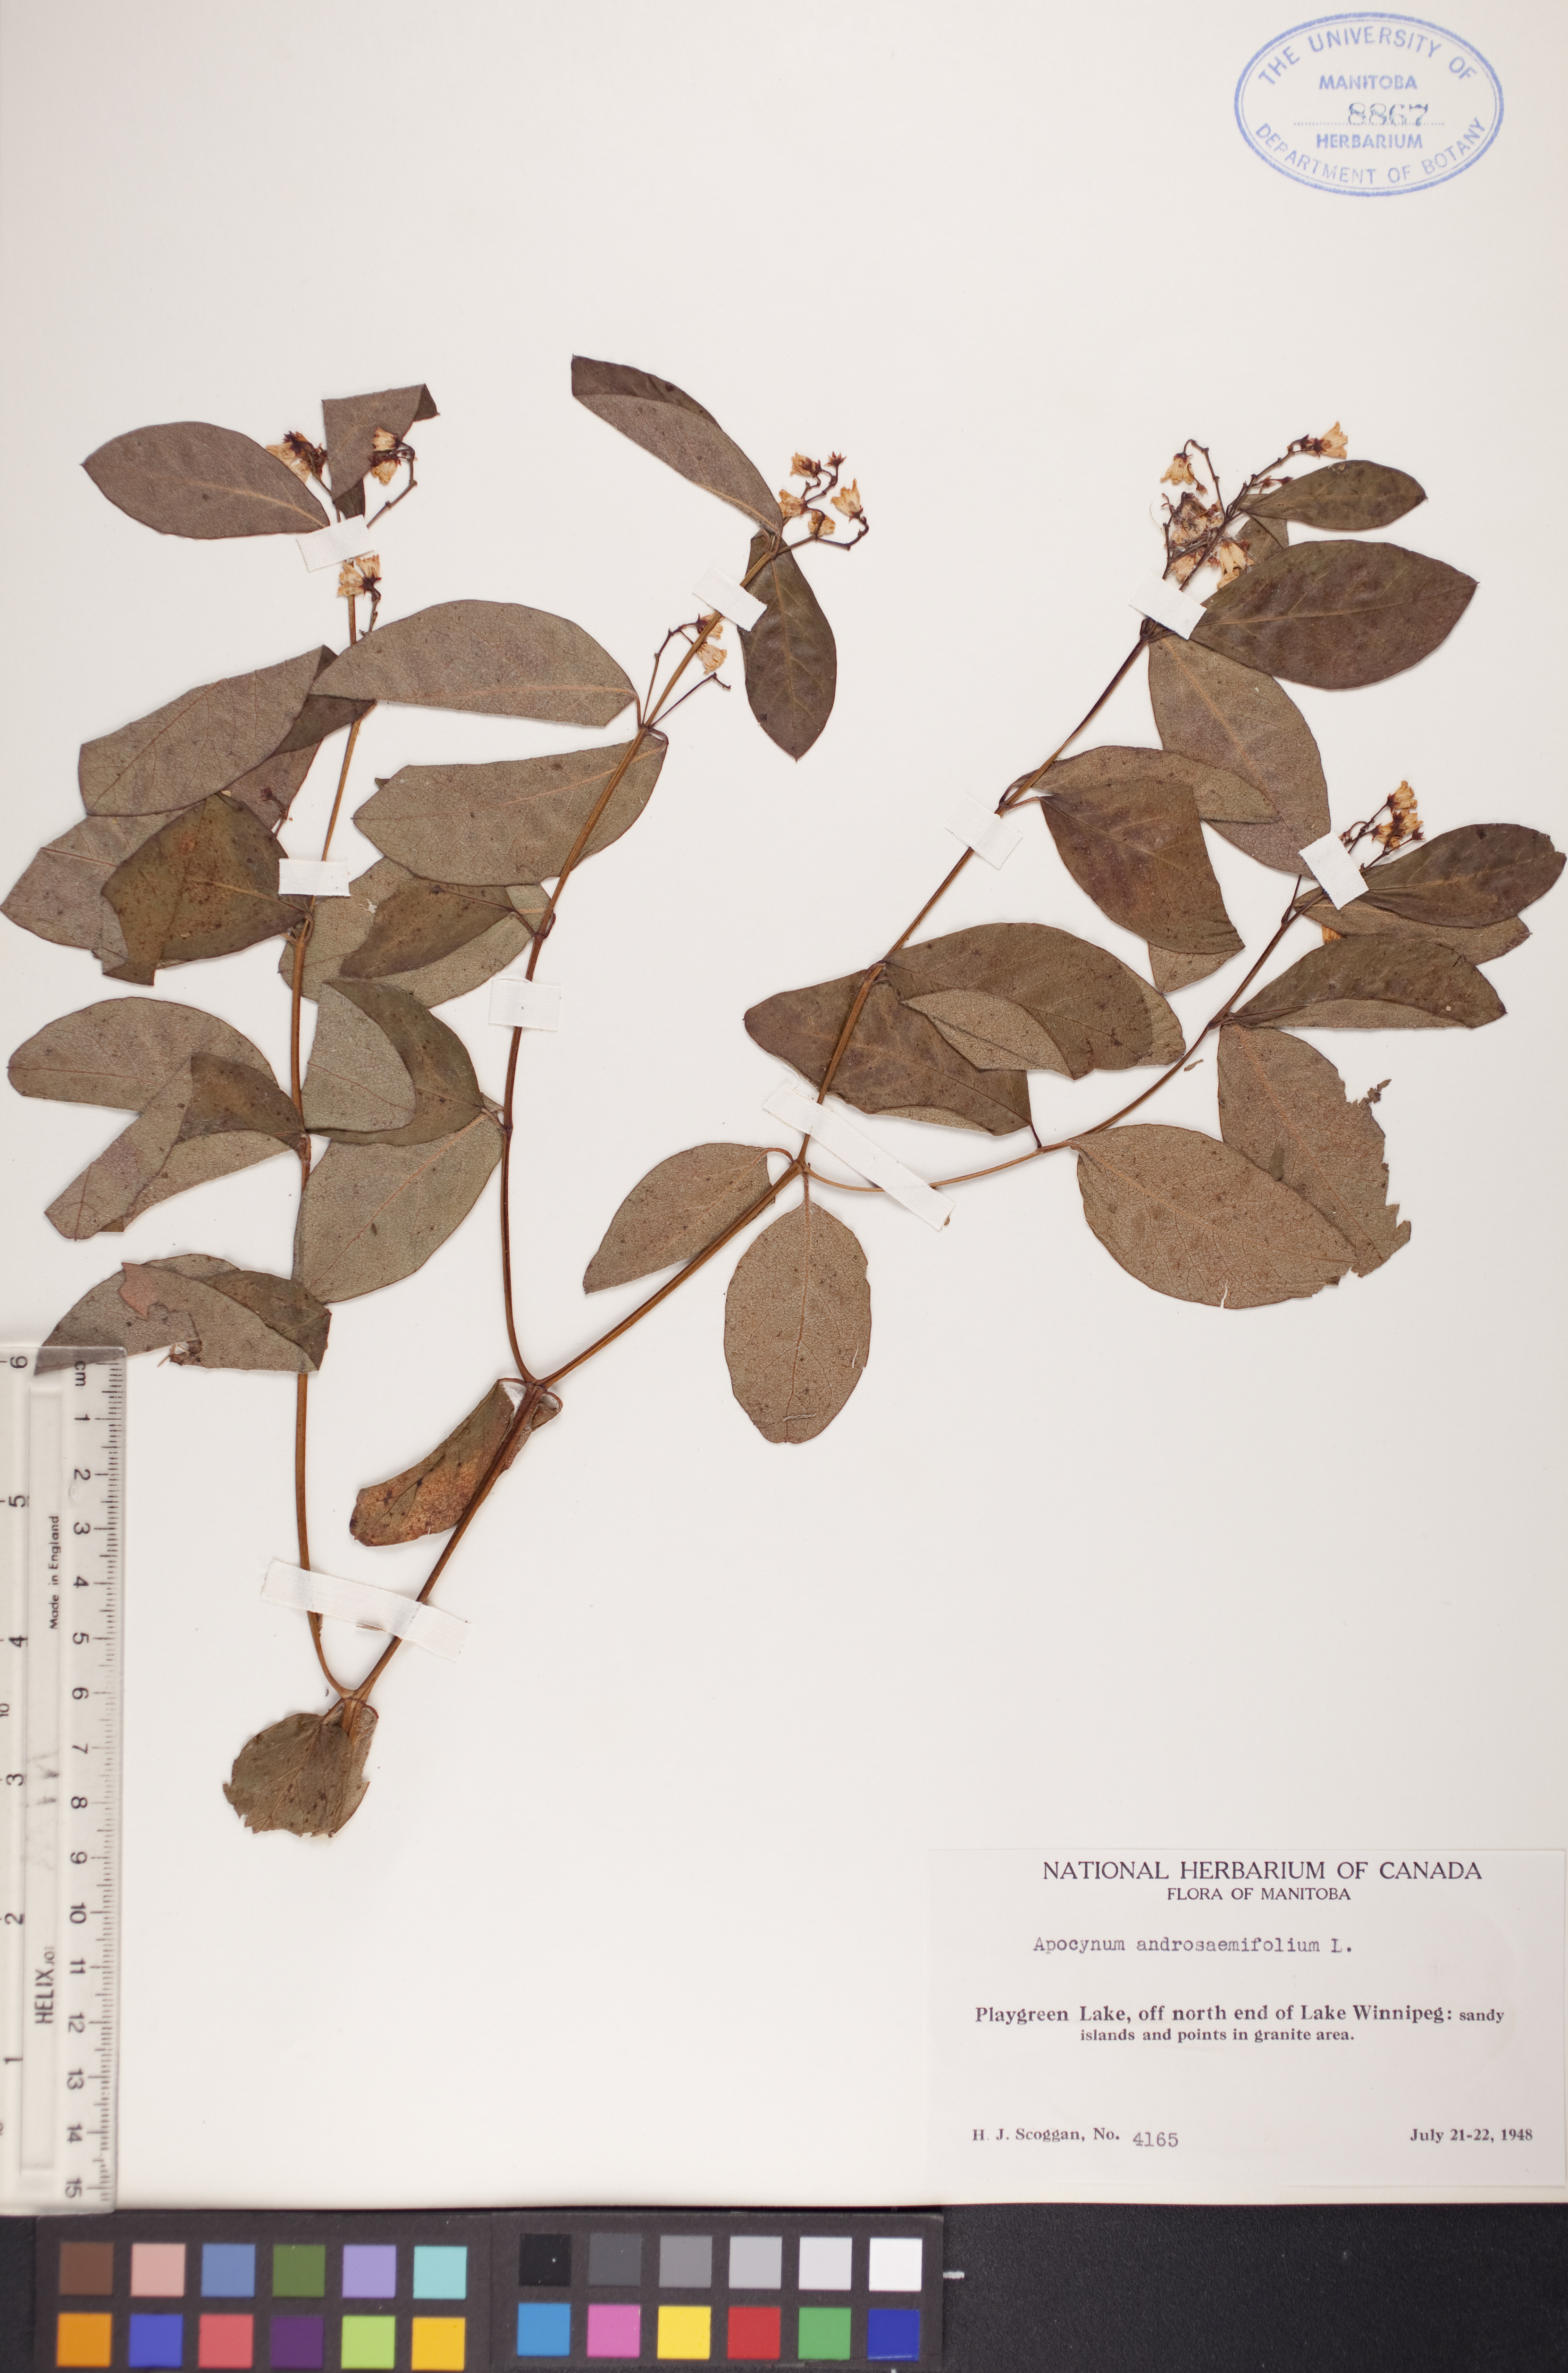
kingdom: Plantae
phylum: Tracheophyta
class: Magnoliopsida
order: Gentianales
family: Apocynaceae
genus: Apocynum
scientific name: Apocynum androsaemifolium
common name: Spreading dogbane
